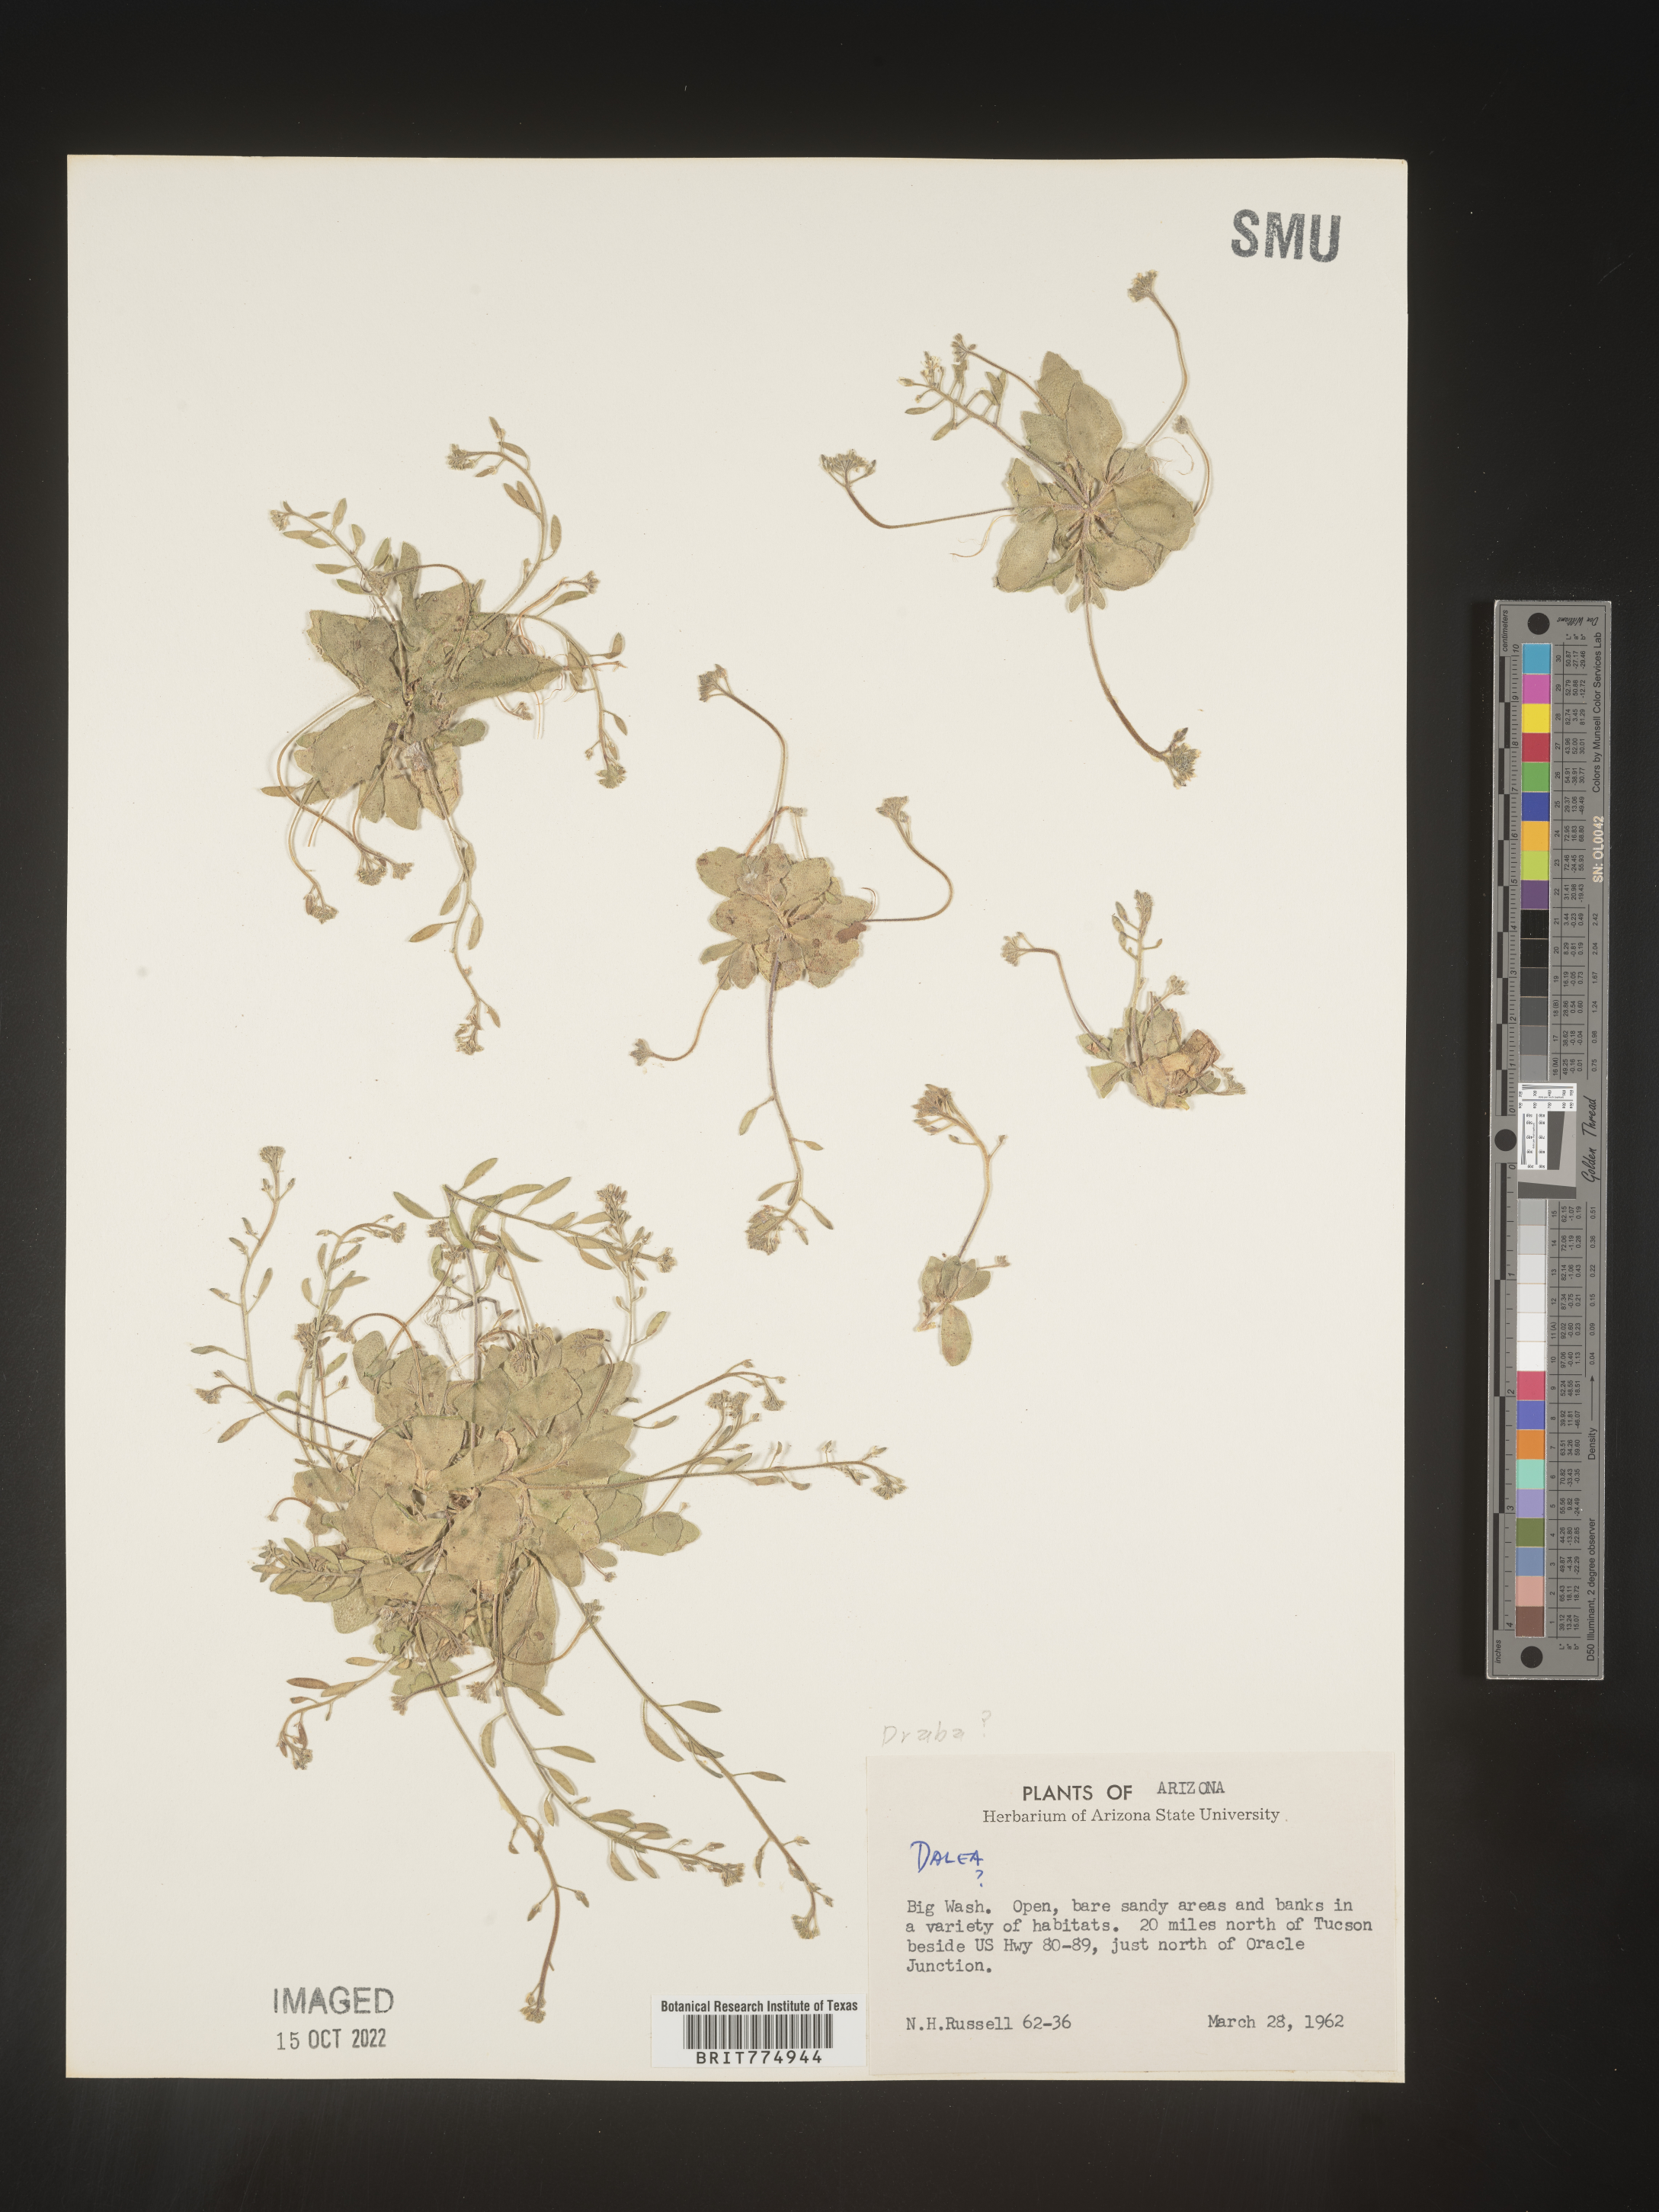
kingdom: Plantae
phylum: Tracheophyta
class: Magnoliopsida
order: Brassicales
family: Brassicaceae
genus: Draba
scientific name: Draba
